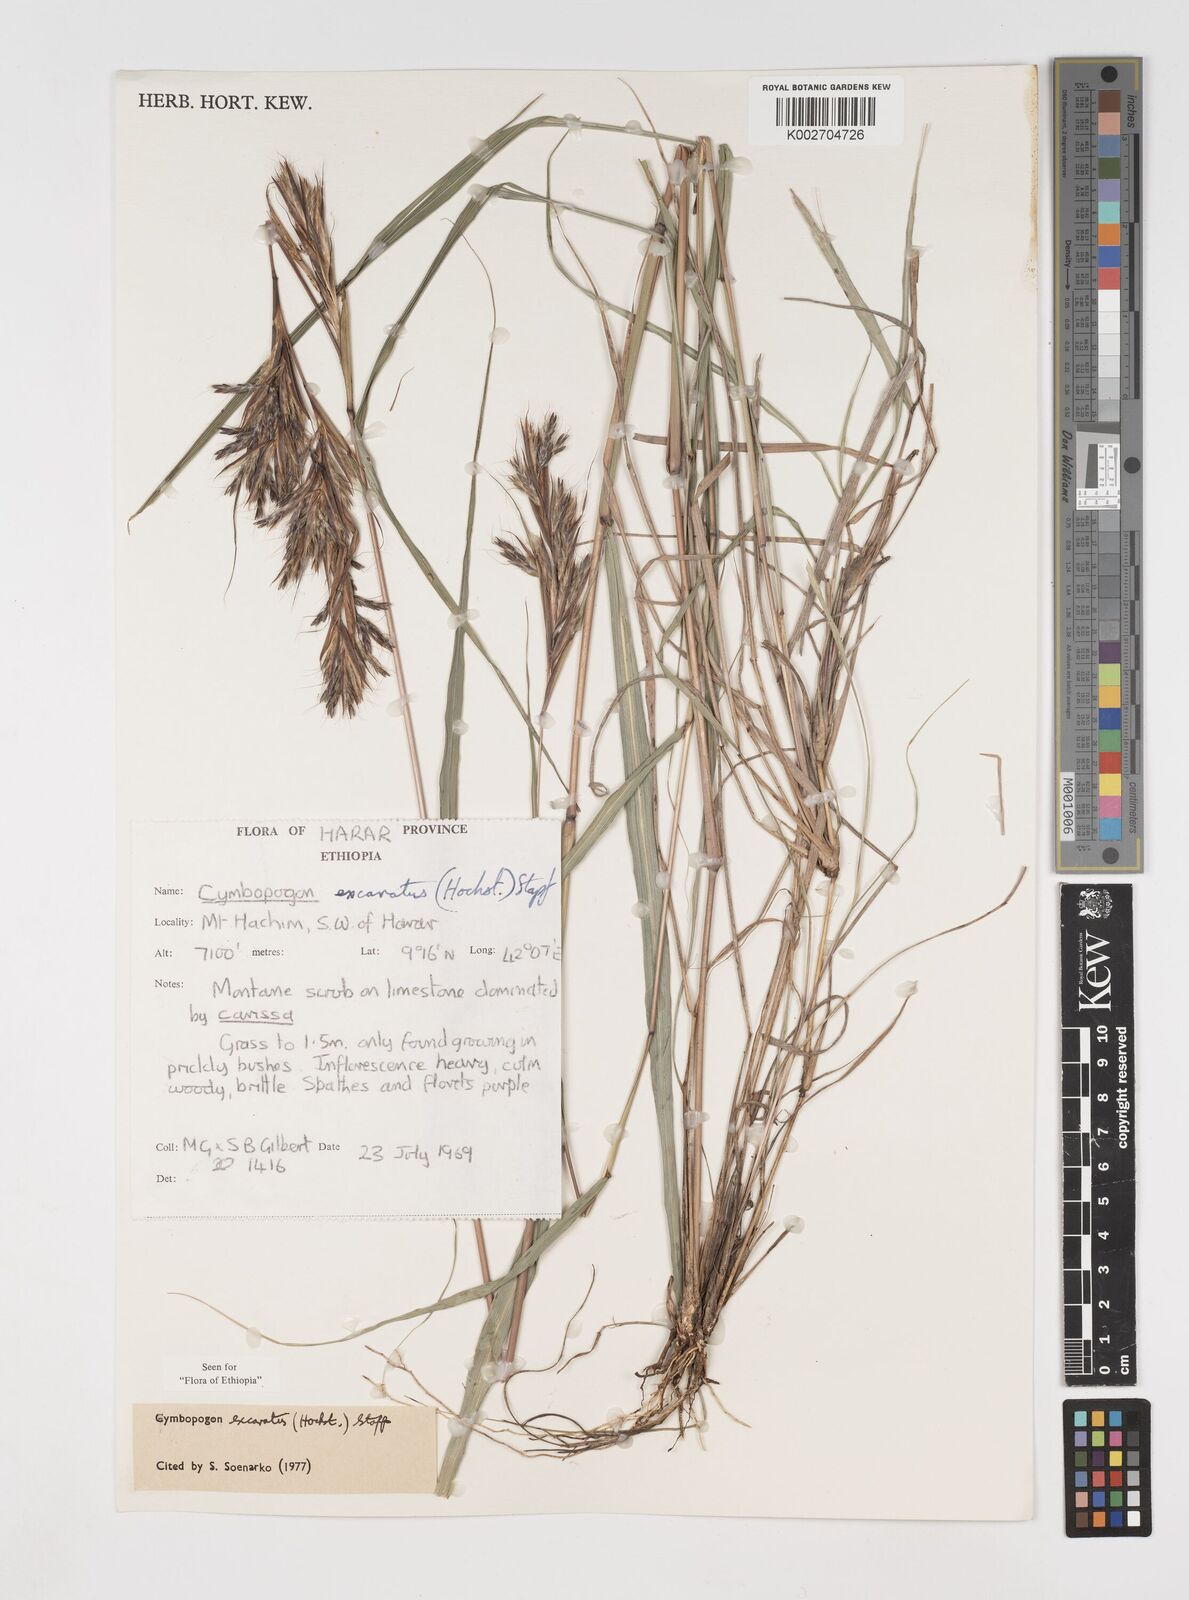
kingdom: Plantae
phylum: Tracheophyta
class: Liliopsida
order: Poales
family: Poaceae
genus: Cymbopogon
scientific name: Cymbopogon caesius
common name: Kachi grass
